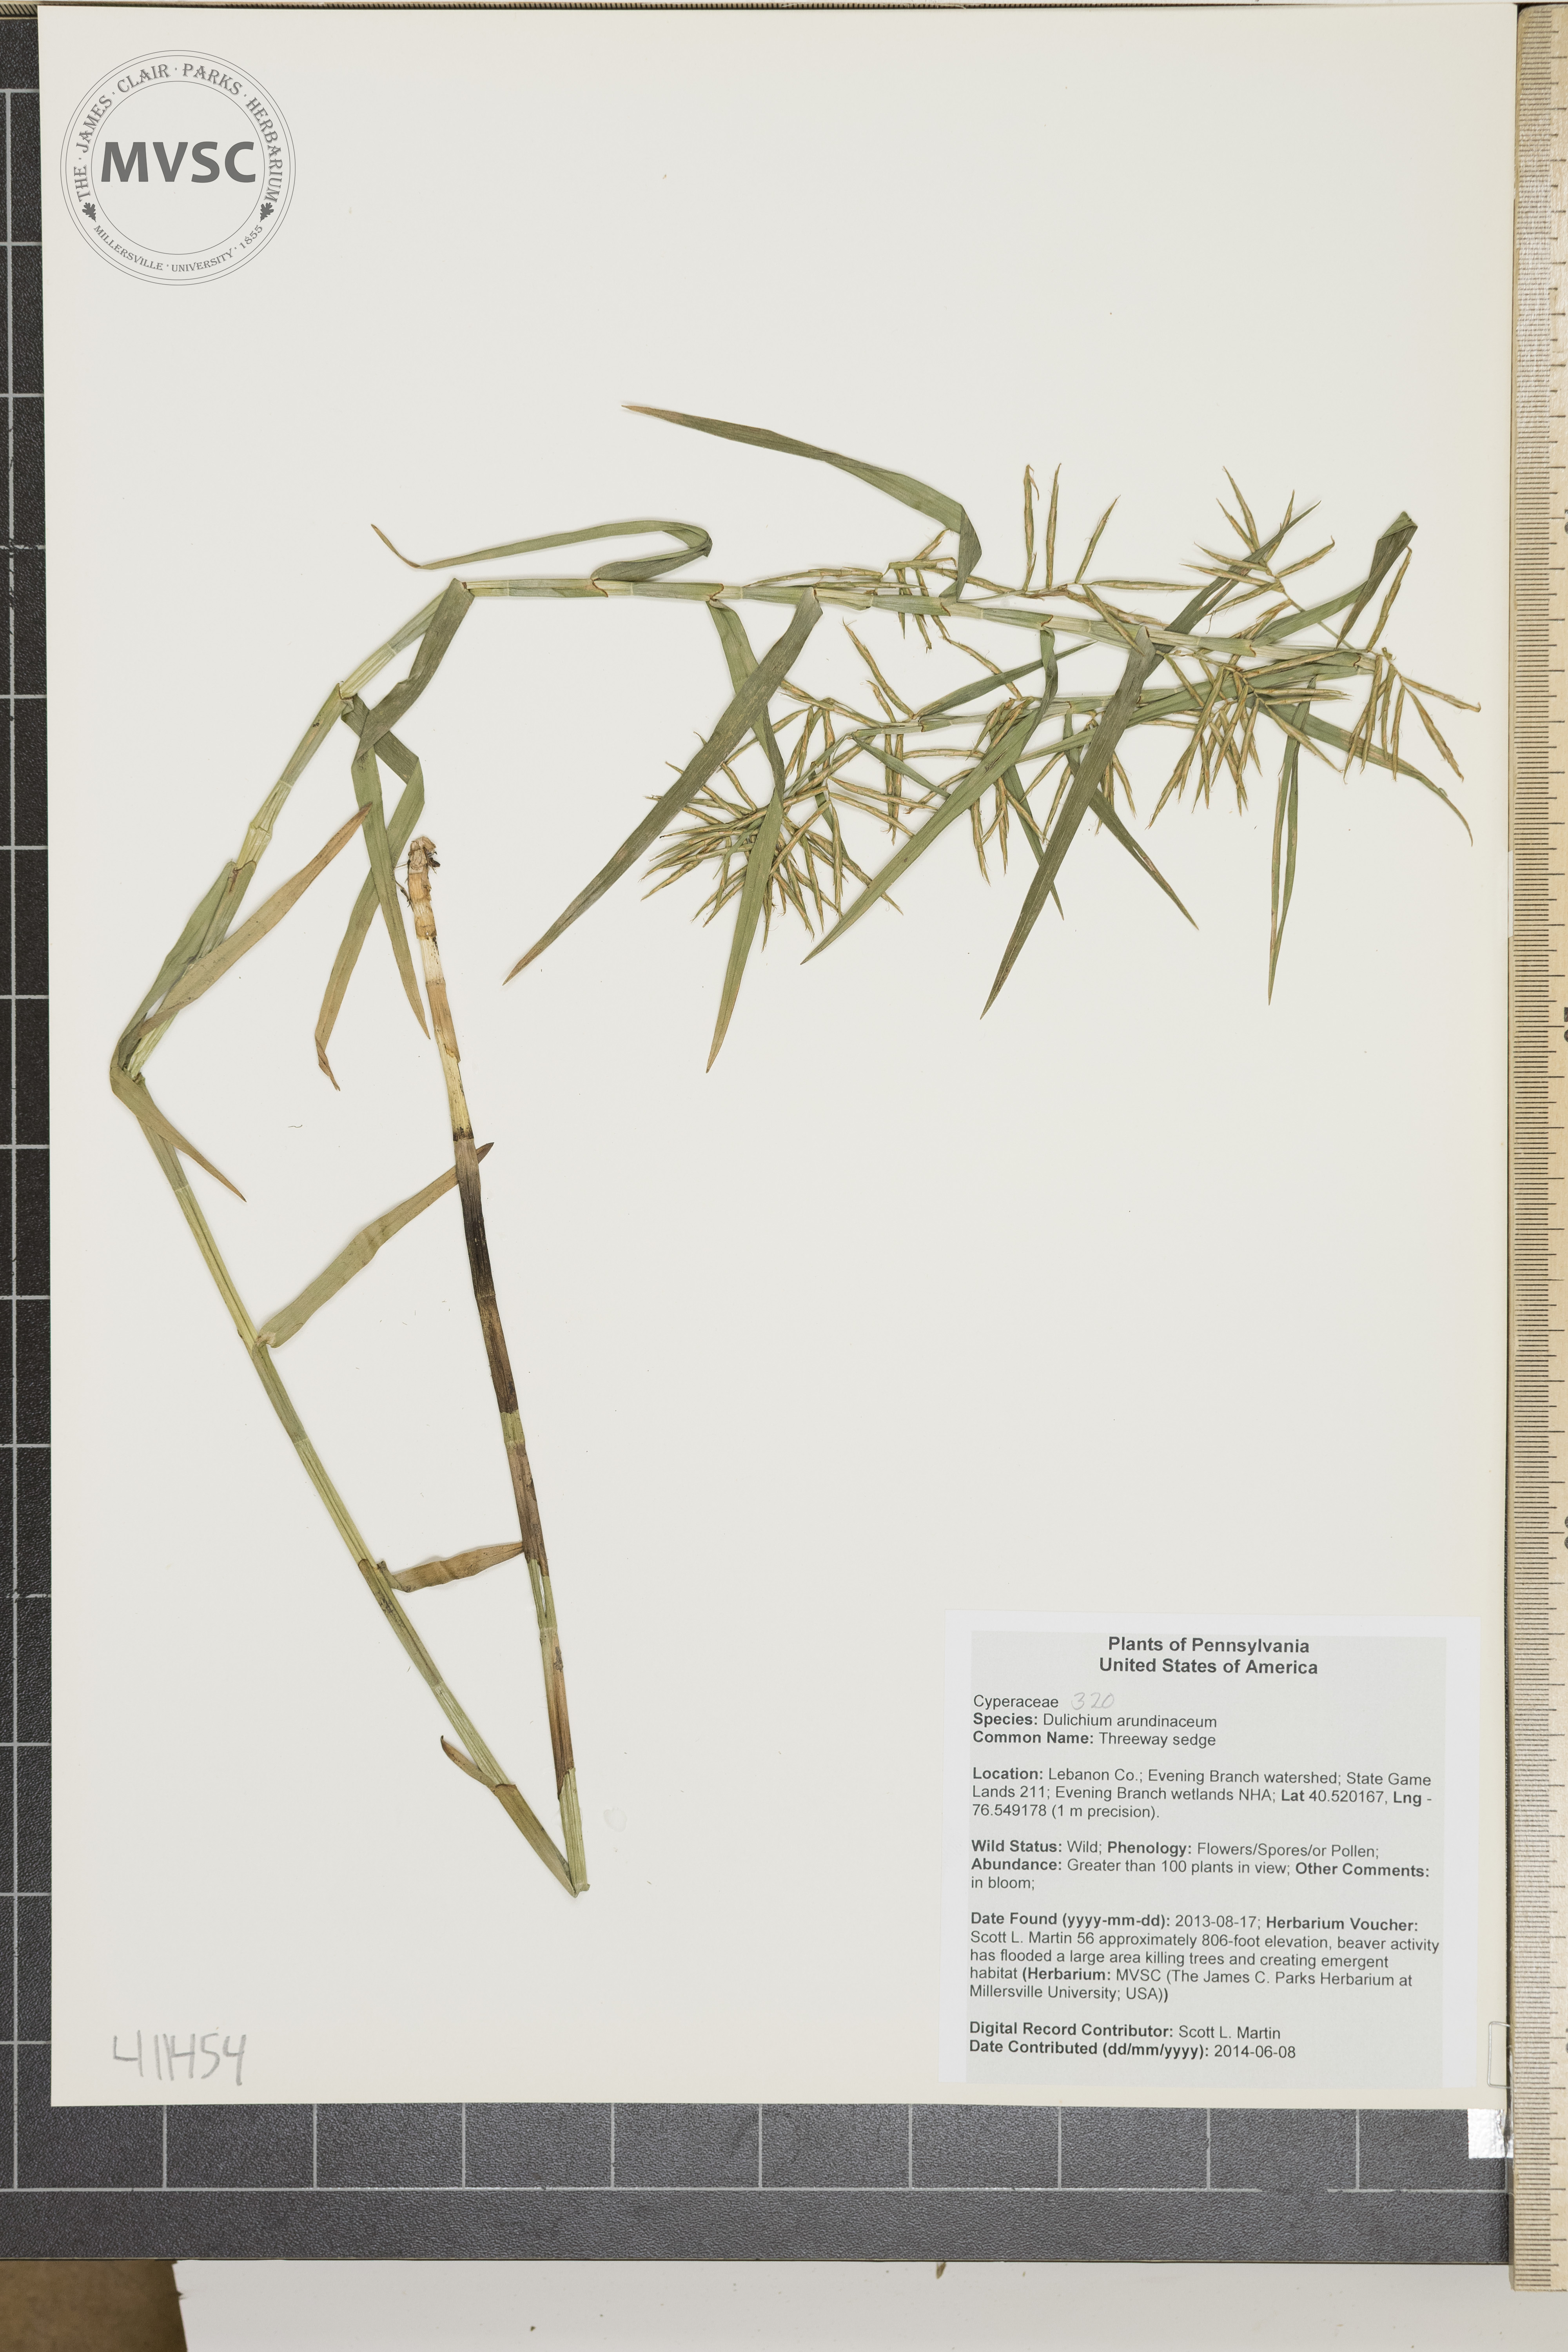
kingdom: Plantae
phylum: Tracheophyta
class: Liliopsida
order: Poales
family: Cyperaceae
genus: Dulichium
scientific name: Dulichium arundinaceum
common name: Threeway sedge
